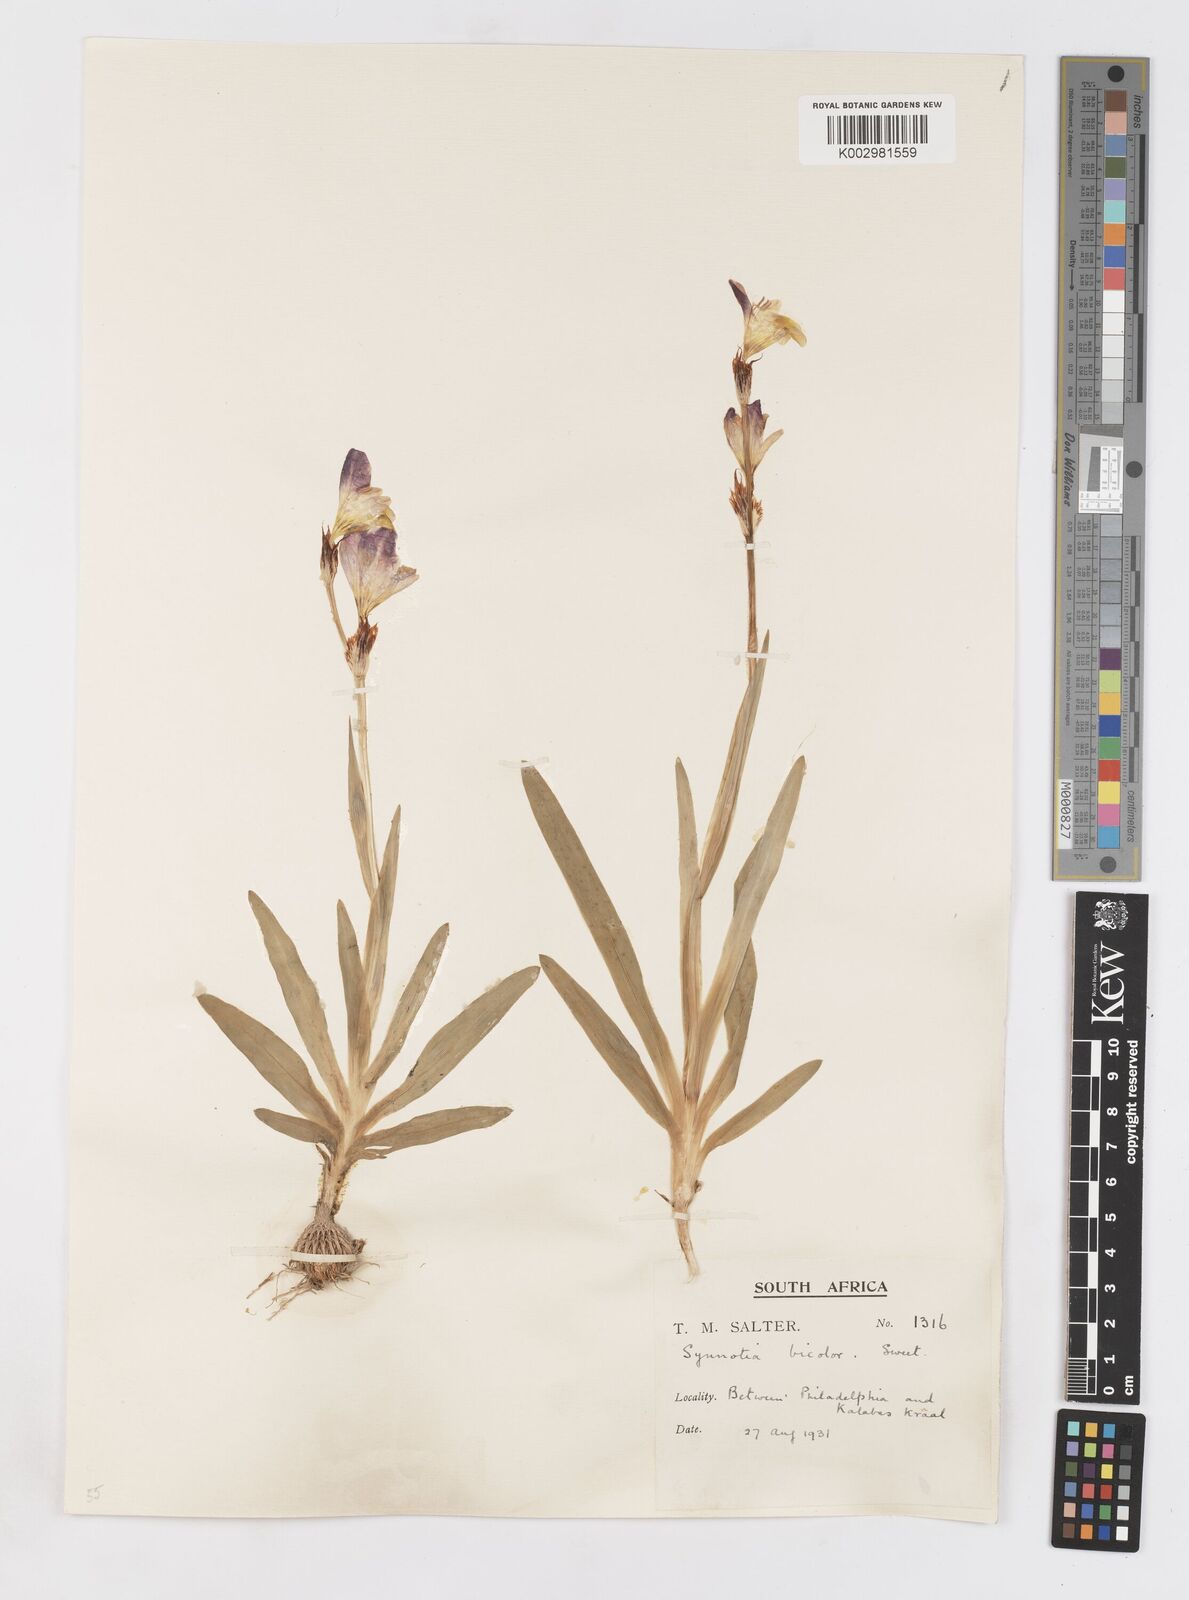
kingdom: Plantae
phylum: Tracheophyta
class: Liliopsida
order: Asparagales
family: Iridaceae
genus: Sparaxis
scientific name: Sparaxis
